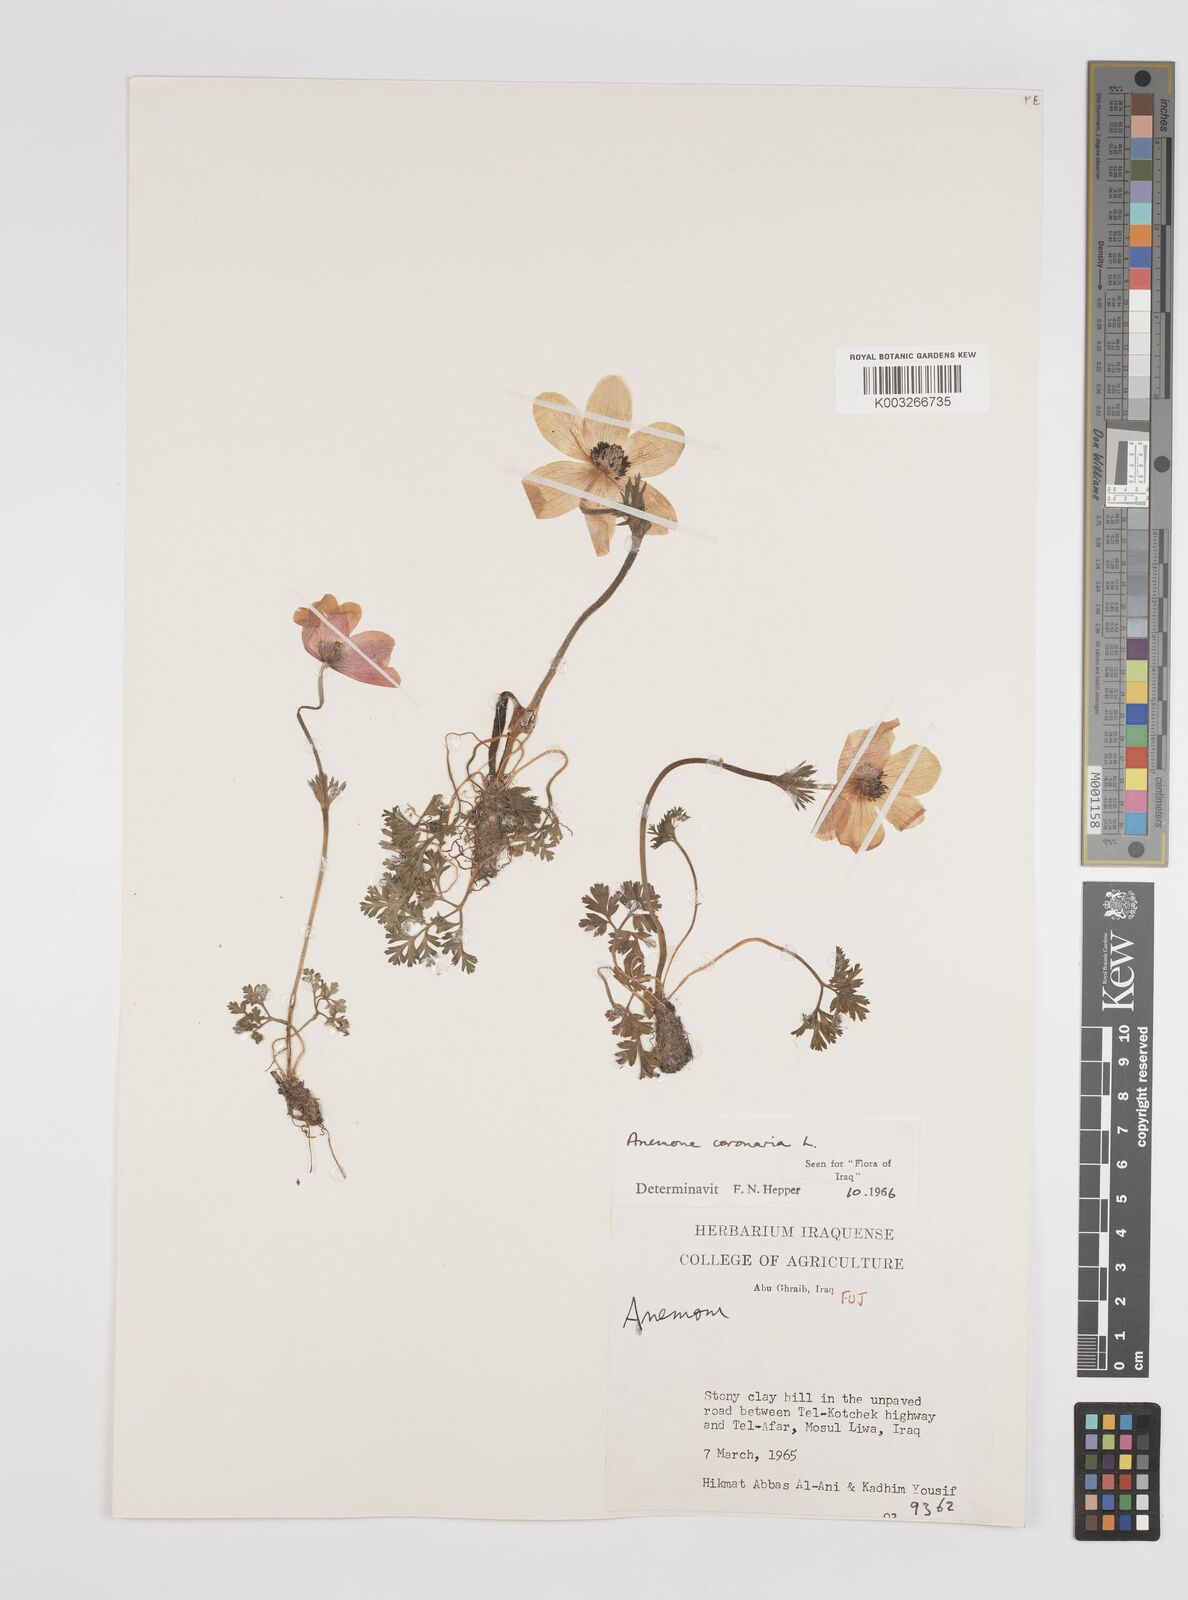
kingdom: Plantae
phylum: Tracheophyta
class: Magnoliopsida
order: Ranunculales
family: Ranunculaceae
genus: Anemone
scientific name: Anemone coronaria
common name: Poppy anemone
